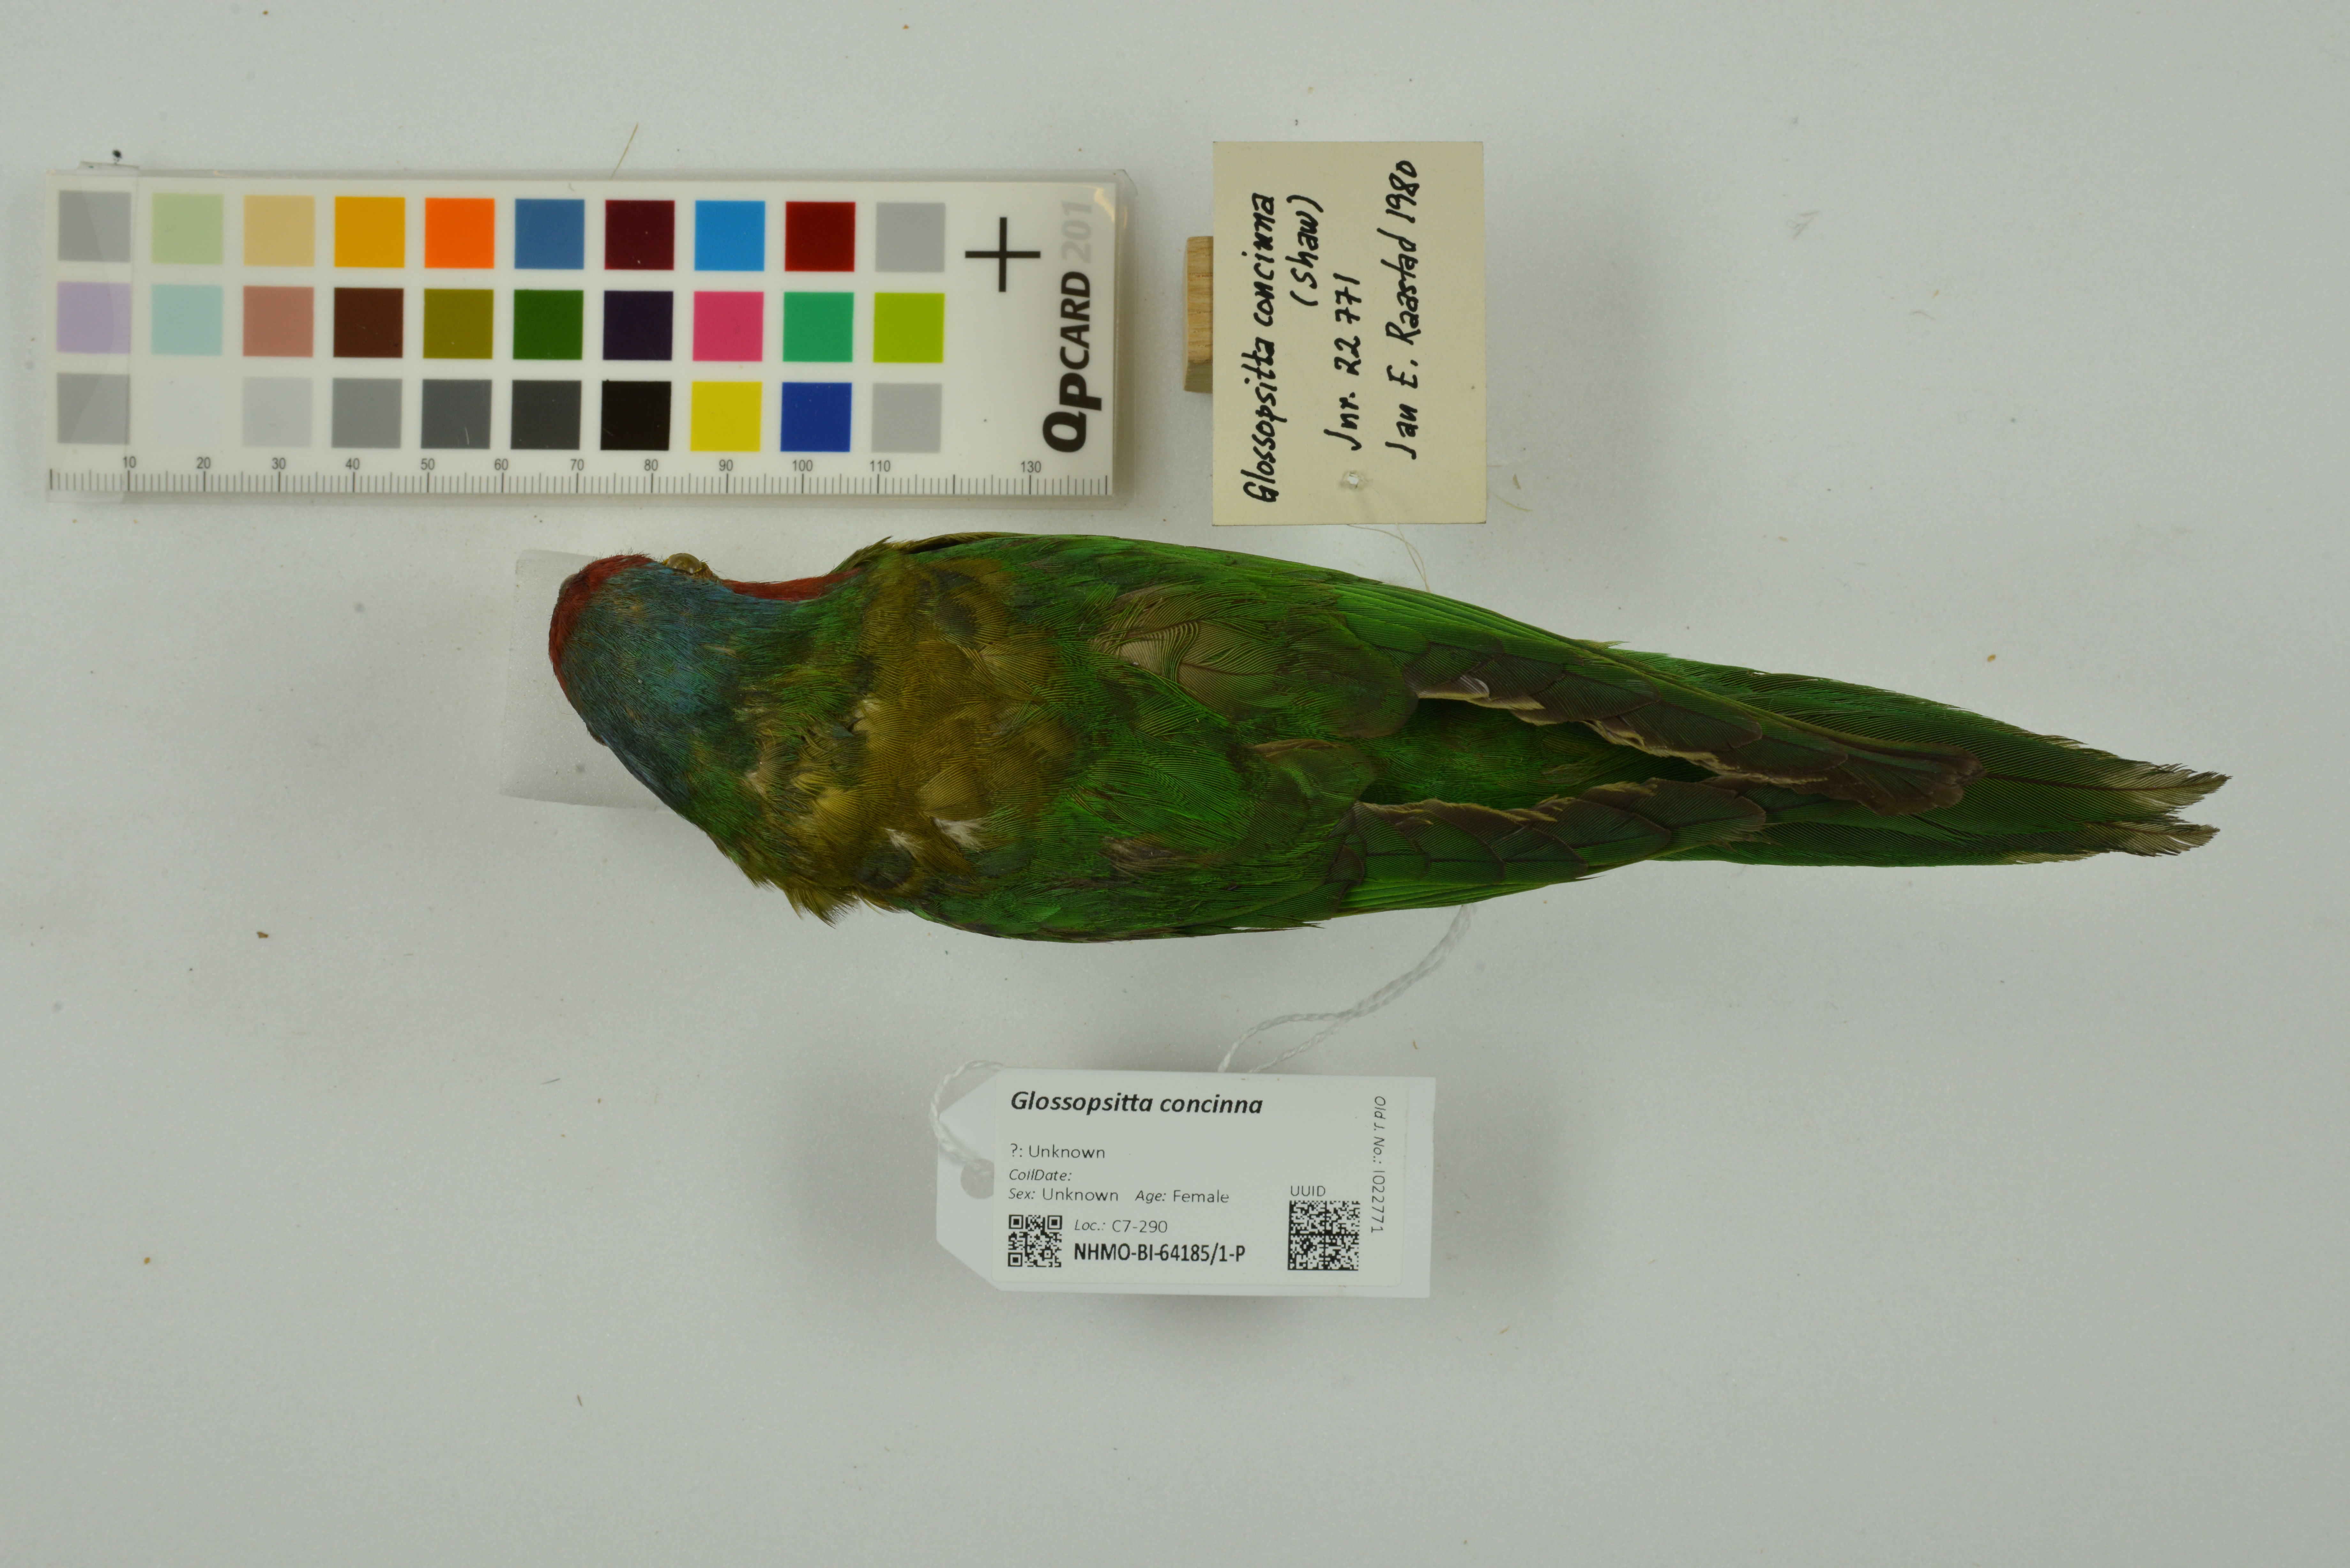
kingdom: Animalia
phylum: Chordata
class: Aves
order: Psittaciformes
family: Psittacidae
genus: Glossopsitta
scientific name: Glossopsitta concinna
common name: Musk lorikeet
